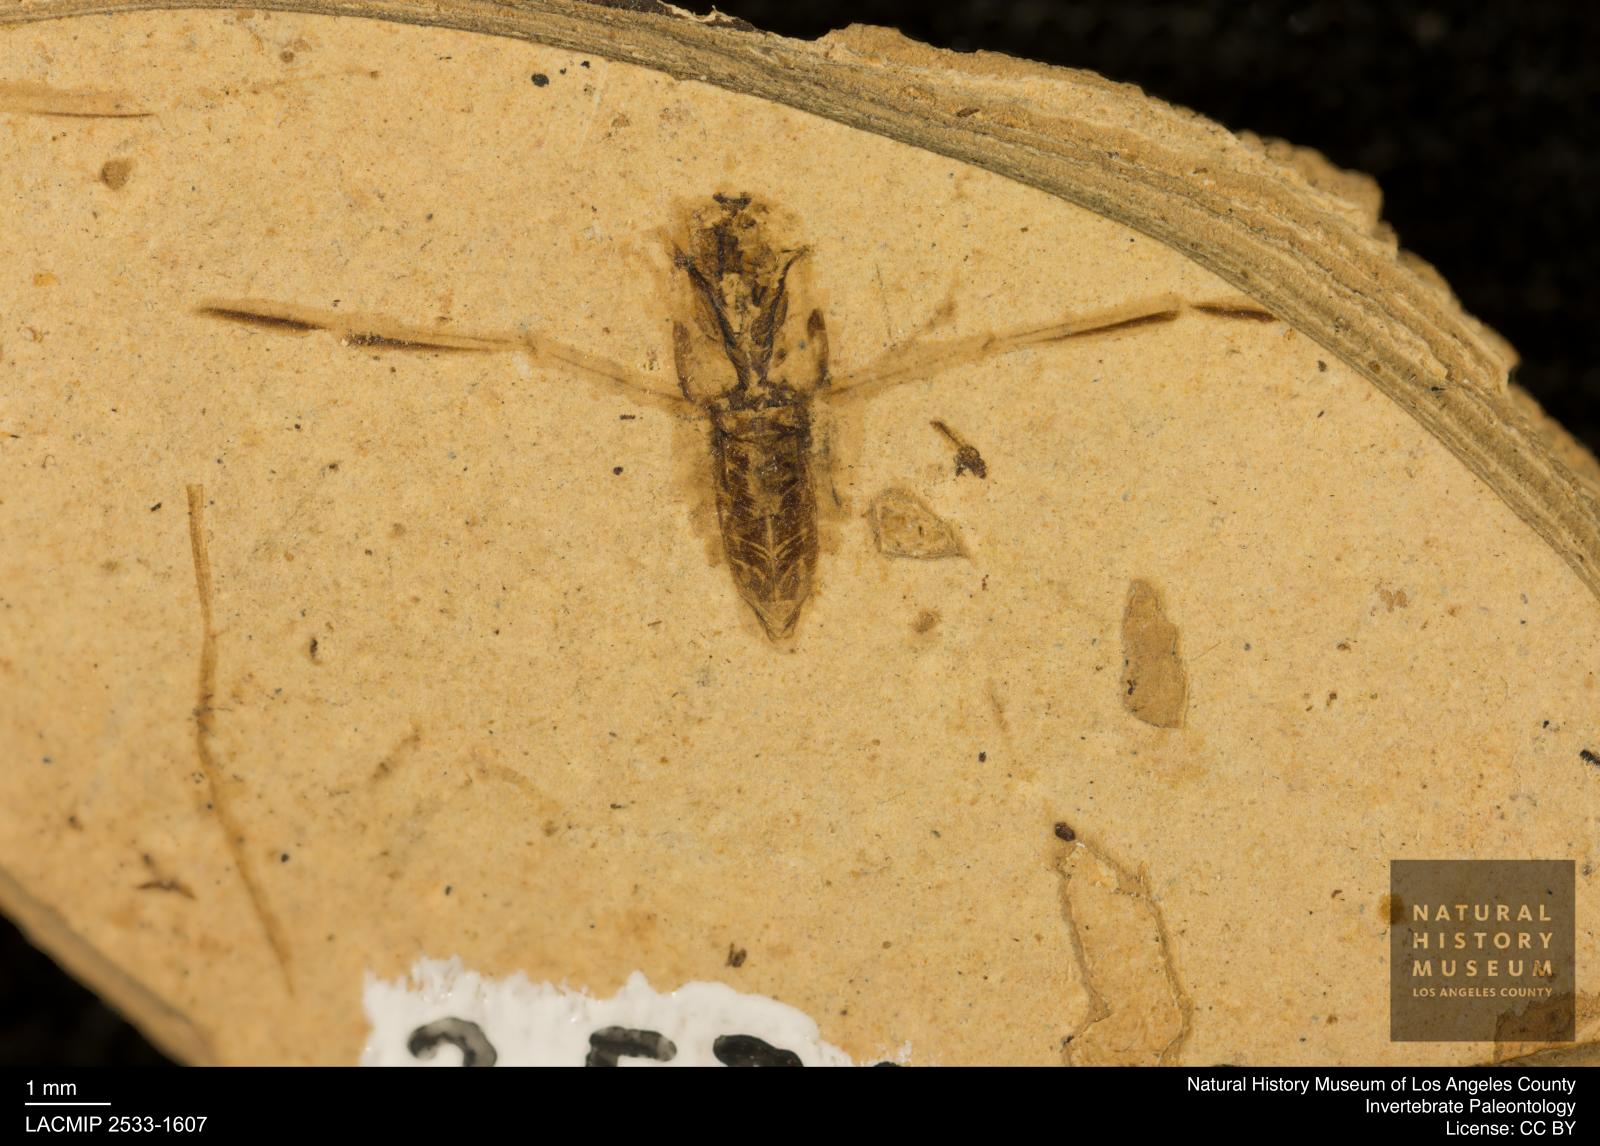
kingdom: Animalia
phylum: Arthropoda
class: Insecta
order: Hemiptera
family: Notonectidae
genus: Notonecta
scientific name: Notonecta
